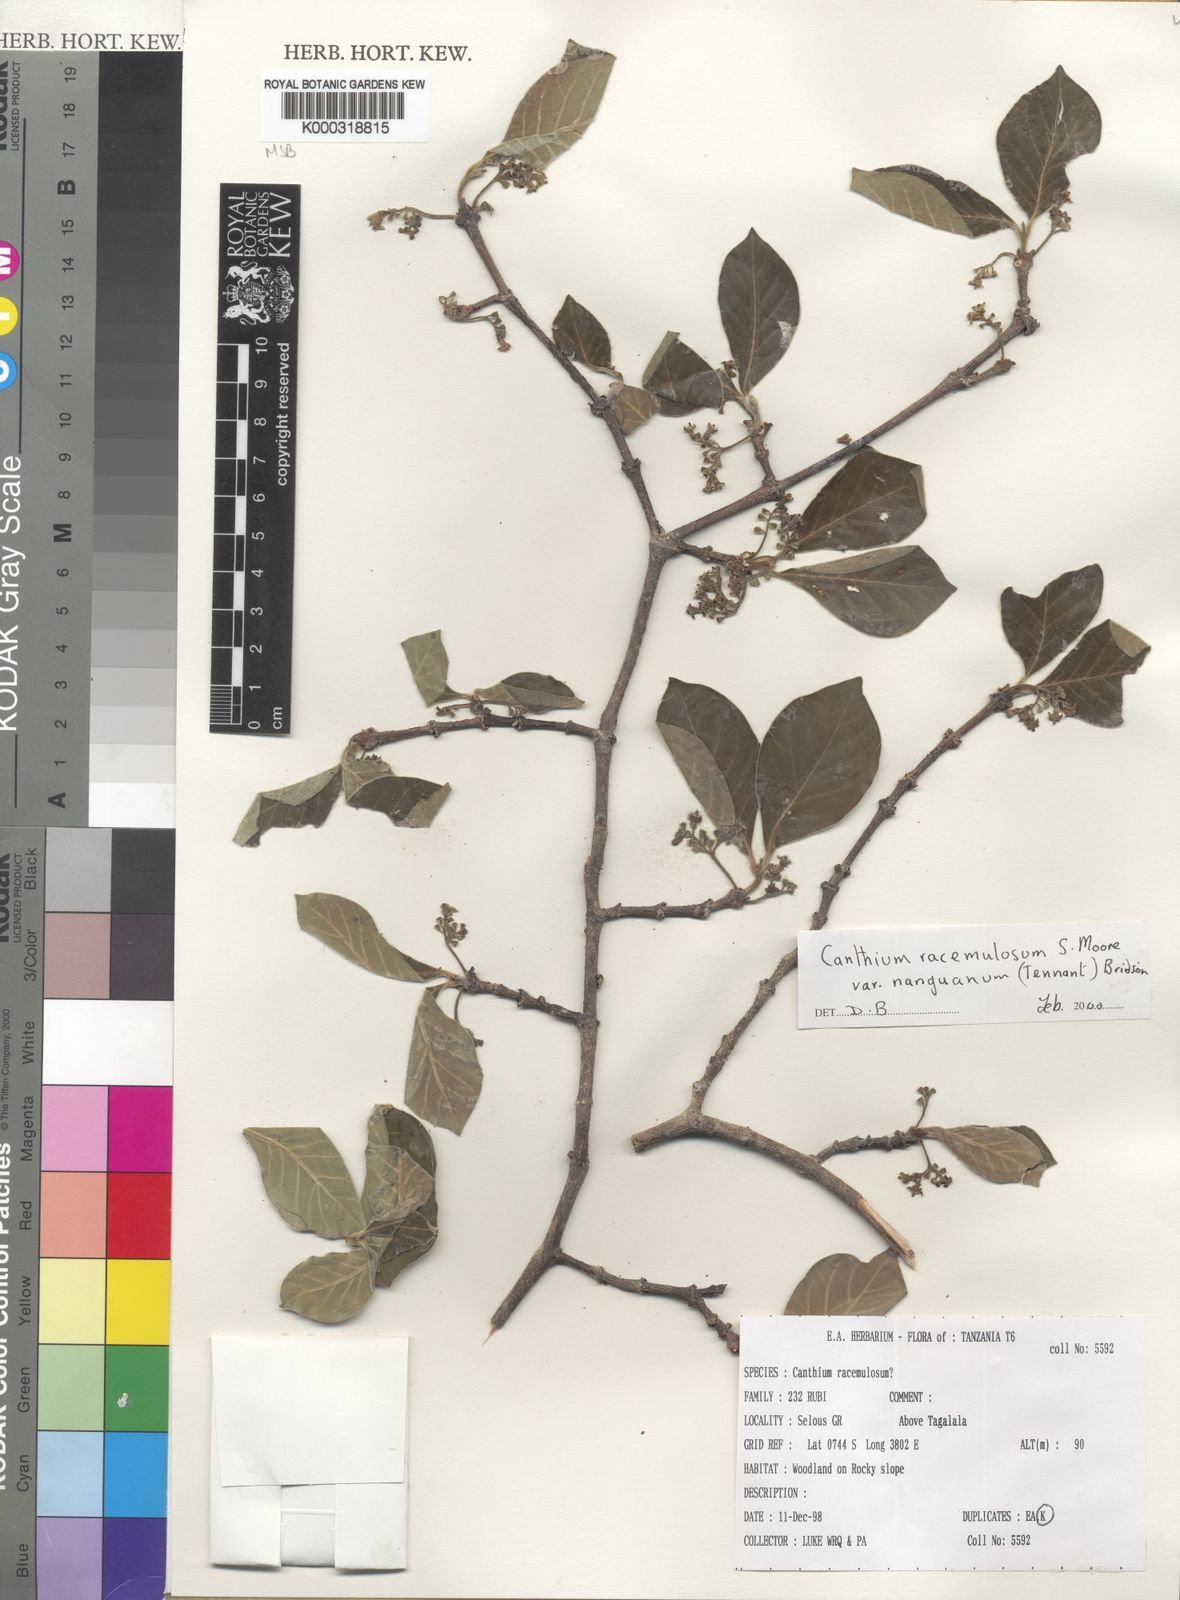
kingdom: Plantae
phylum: Tracheophyta
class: Magnoliopsida
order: Gentianales
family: Rubiaceae
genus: Afrocanthium
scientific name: Afrocanthium racemulosum
